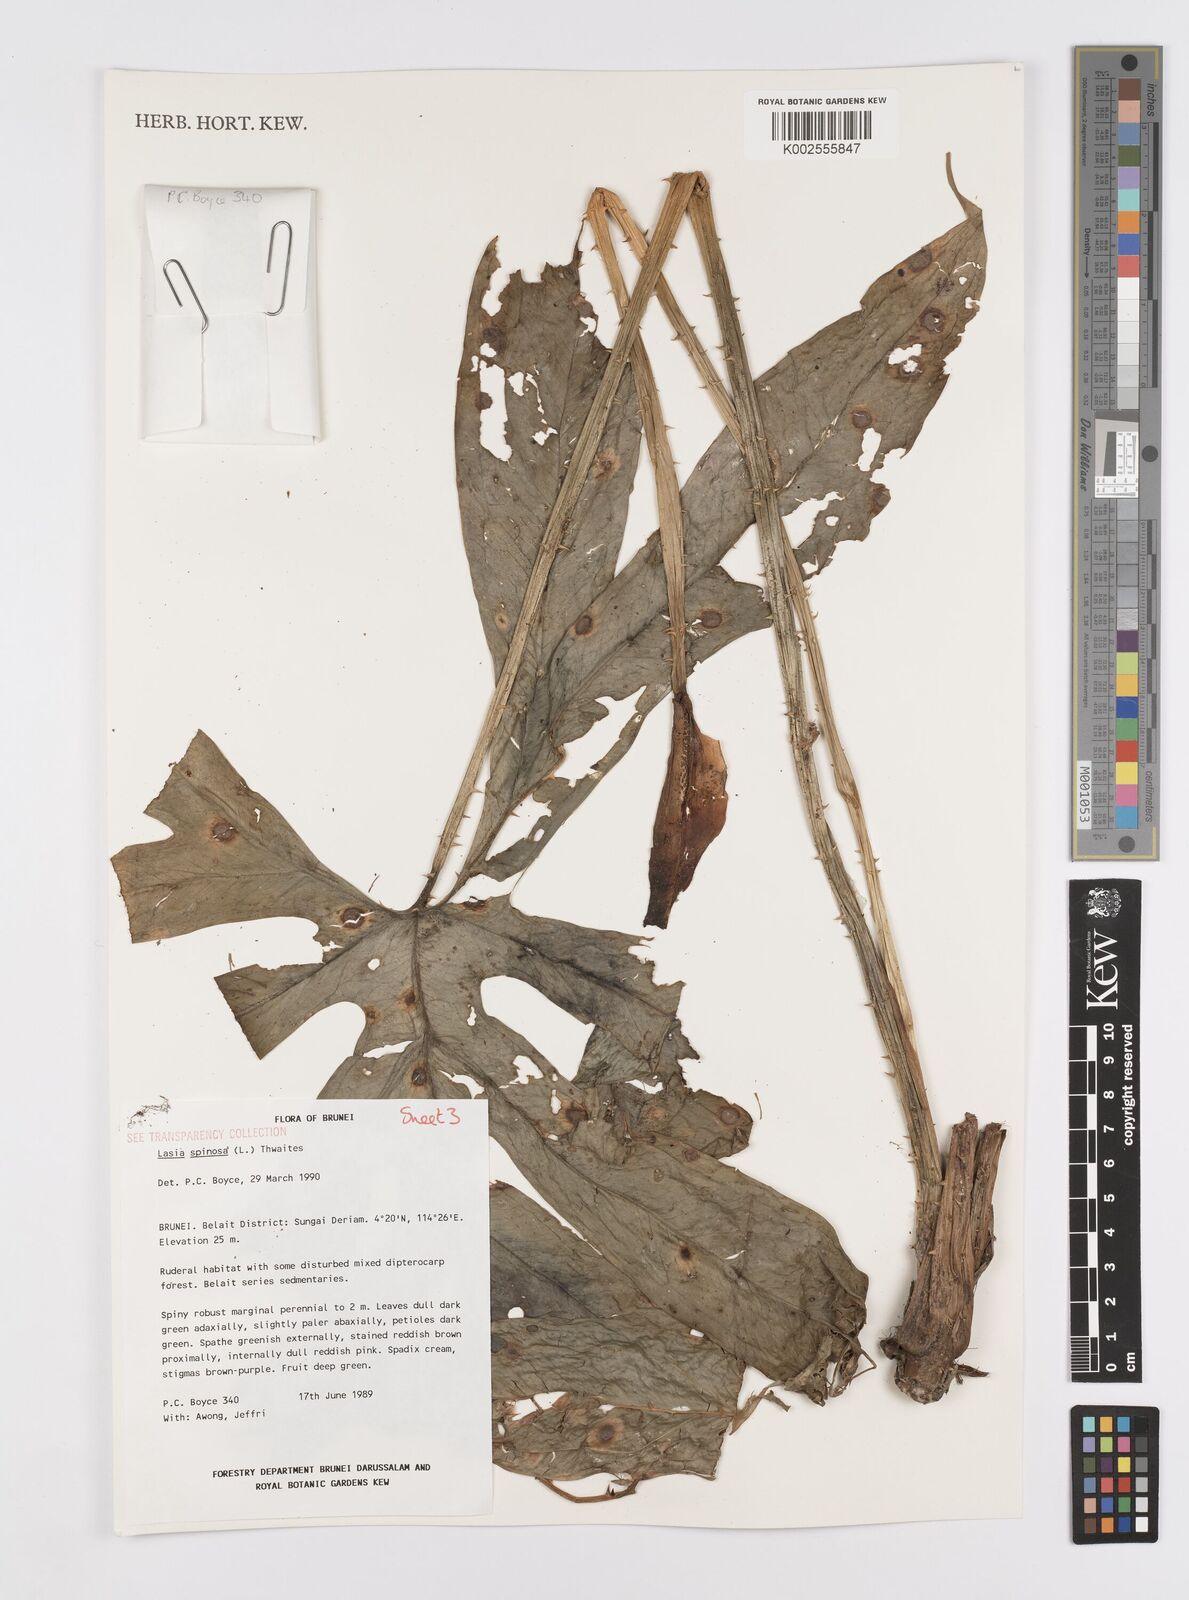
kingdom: Plantae
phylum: Tracheophyta
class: Liliopsida
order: Alismatales
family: Araceae
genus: Lasia
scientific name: Lasia spinosa
